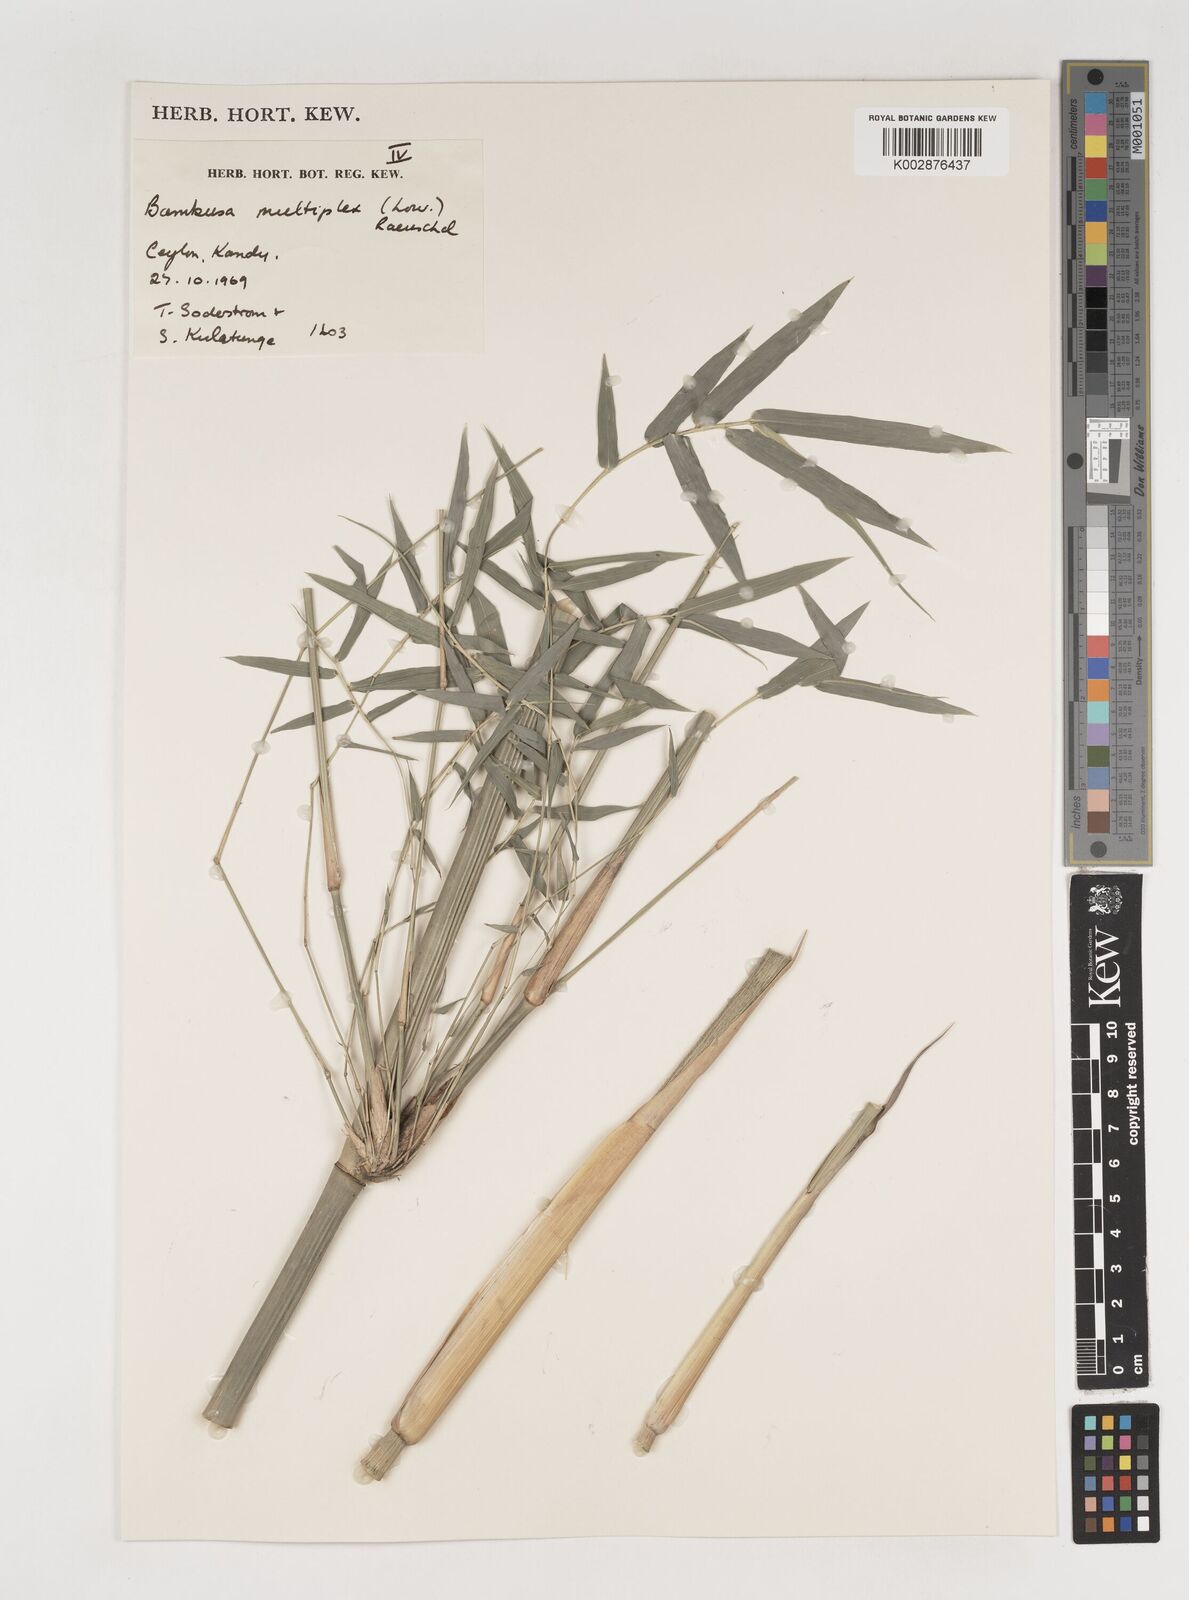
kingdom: Plantae
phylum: Tracheophyta
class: Liliopsida
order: Poales
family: Poaceae
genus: Bambusa
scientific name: Bambusa multiplex
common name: Hedge bamboo
